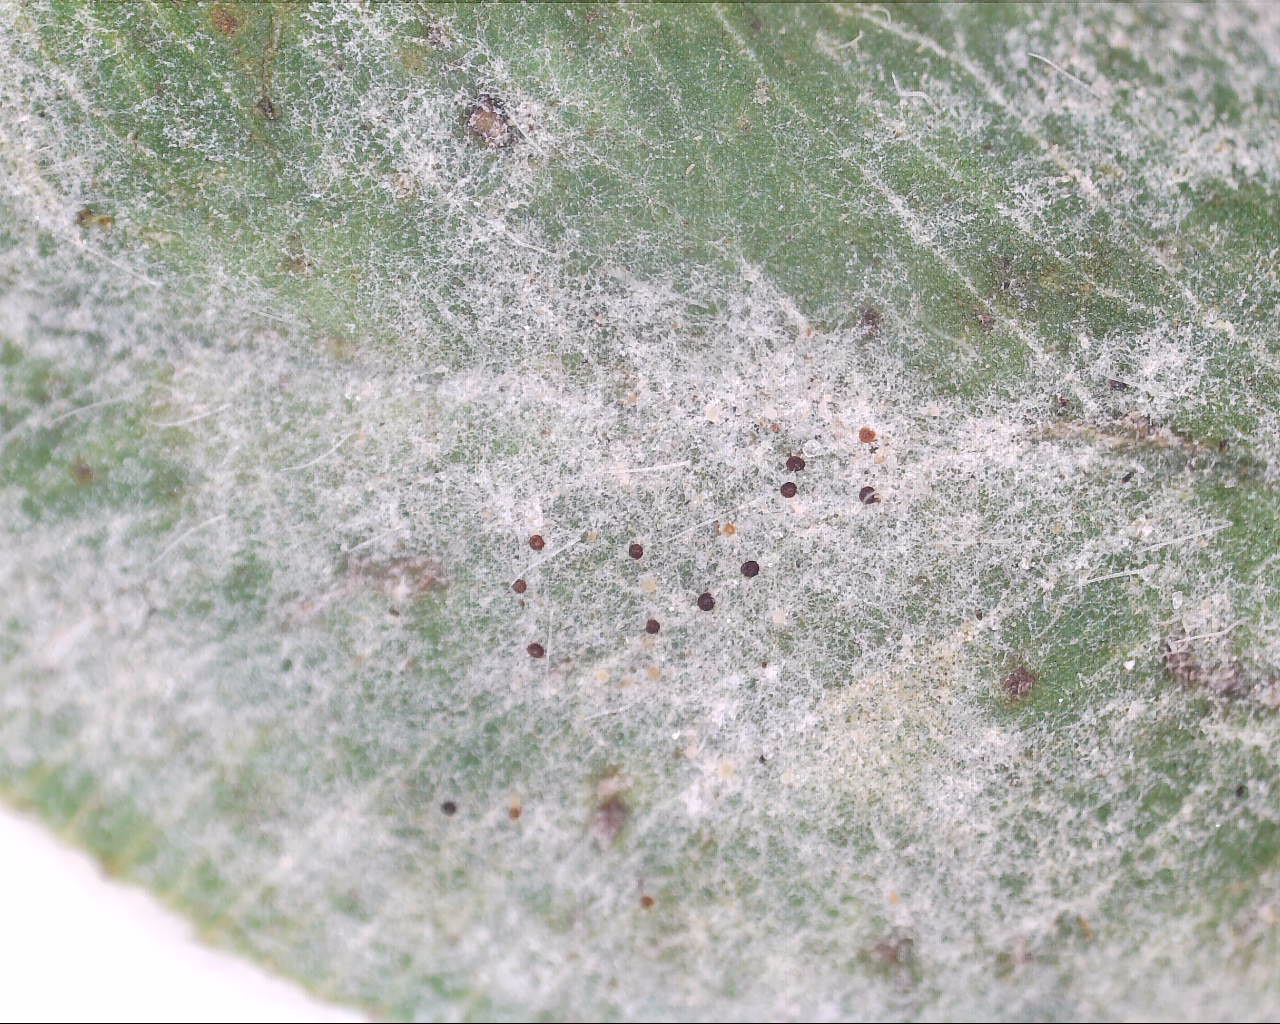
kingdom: Fungi
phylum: Ascomycota
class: Leotiomycetes
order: Helotiales
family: Erysiphaceae
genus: Erysiphe
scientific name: Erysiphe trifoliorum
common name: kløver-meldug
